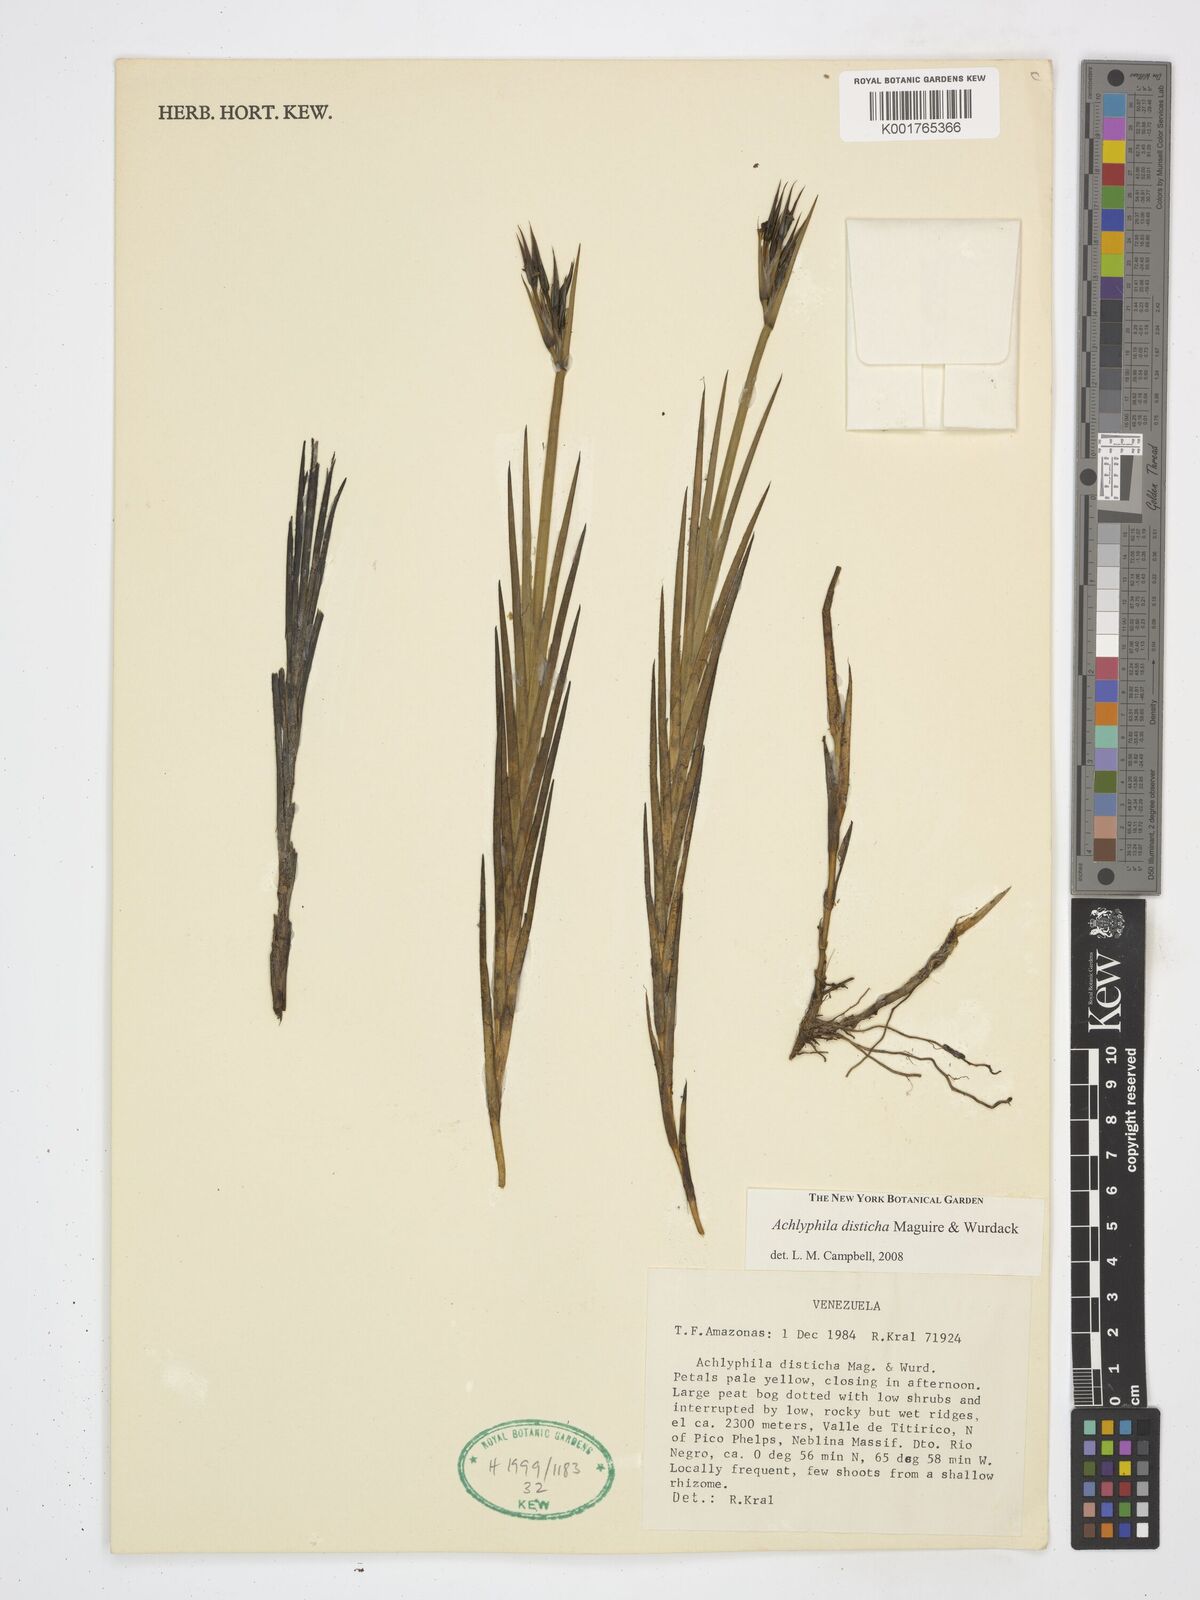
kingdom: Plantae
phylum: Tracheophyta
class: Liliopsida
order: Poales
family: Xyridaceae
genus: Achlyphila
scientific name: Achlyphila disticha
